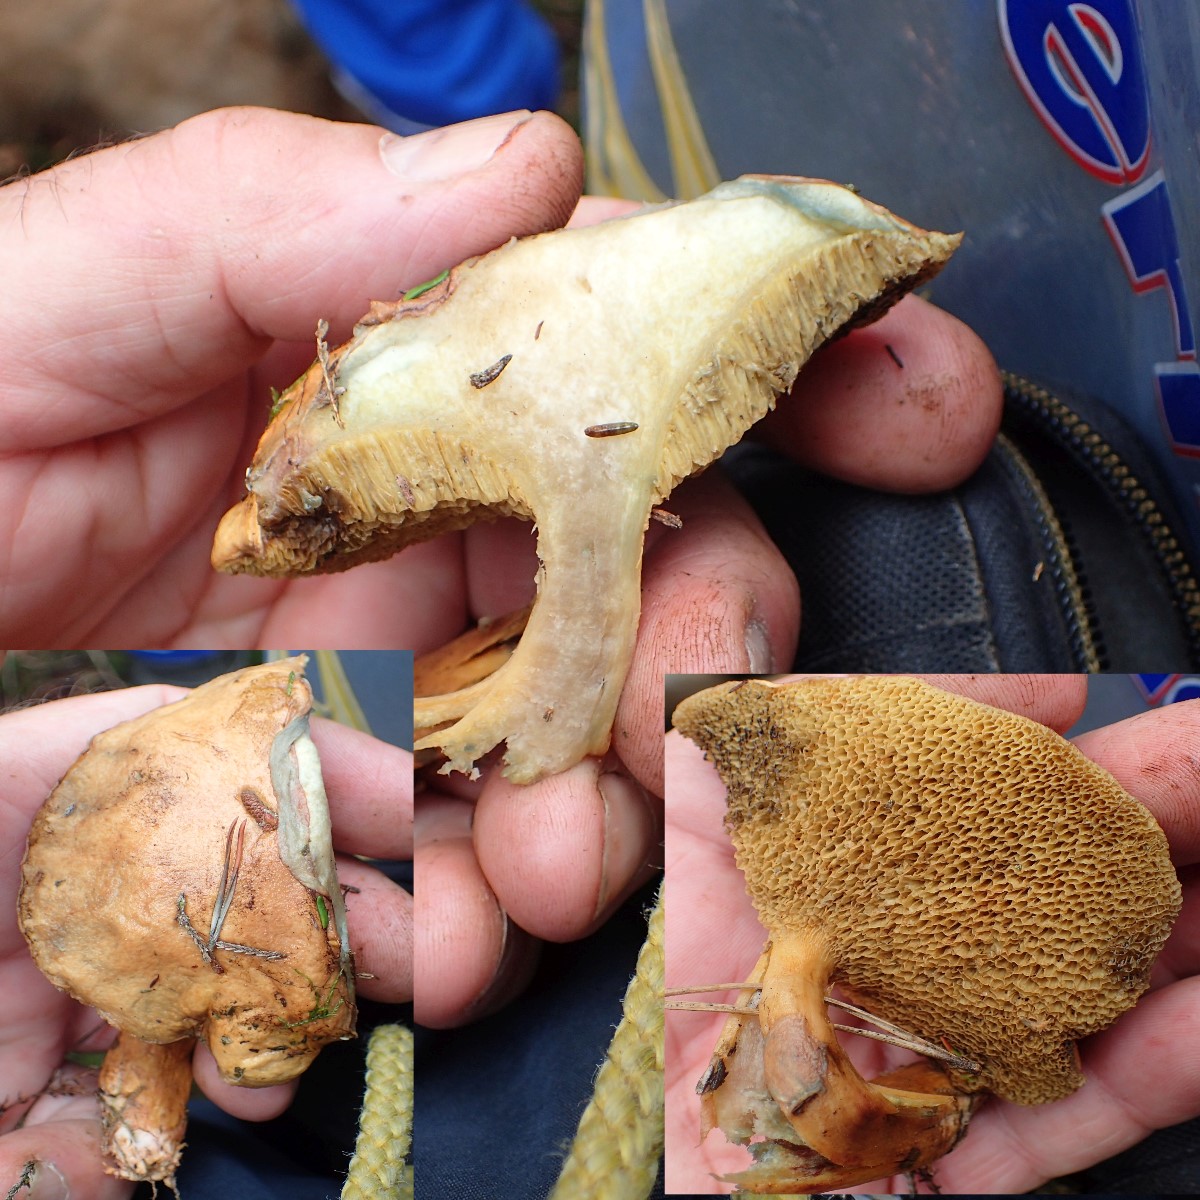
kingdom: Fungi
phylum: Basidiomycota
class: Agaricomycetes
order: Boletales
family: Suillaceae
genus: Suillus
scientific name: Suillus bovinus
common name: grovporet slimrørhat
